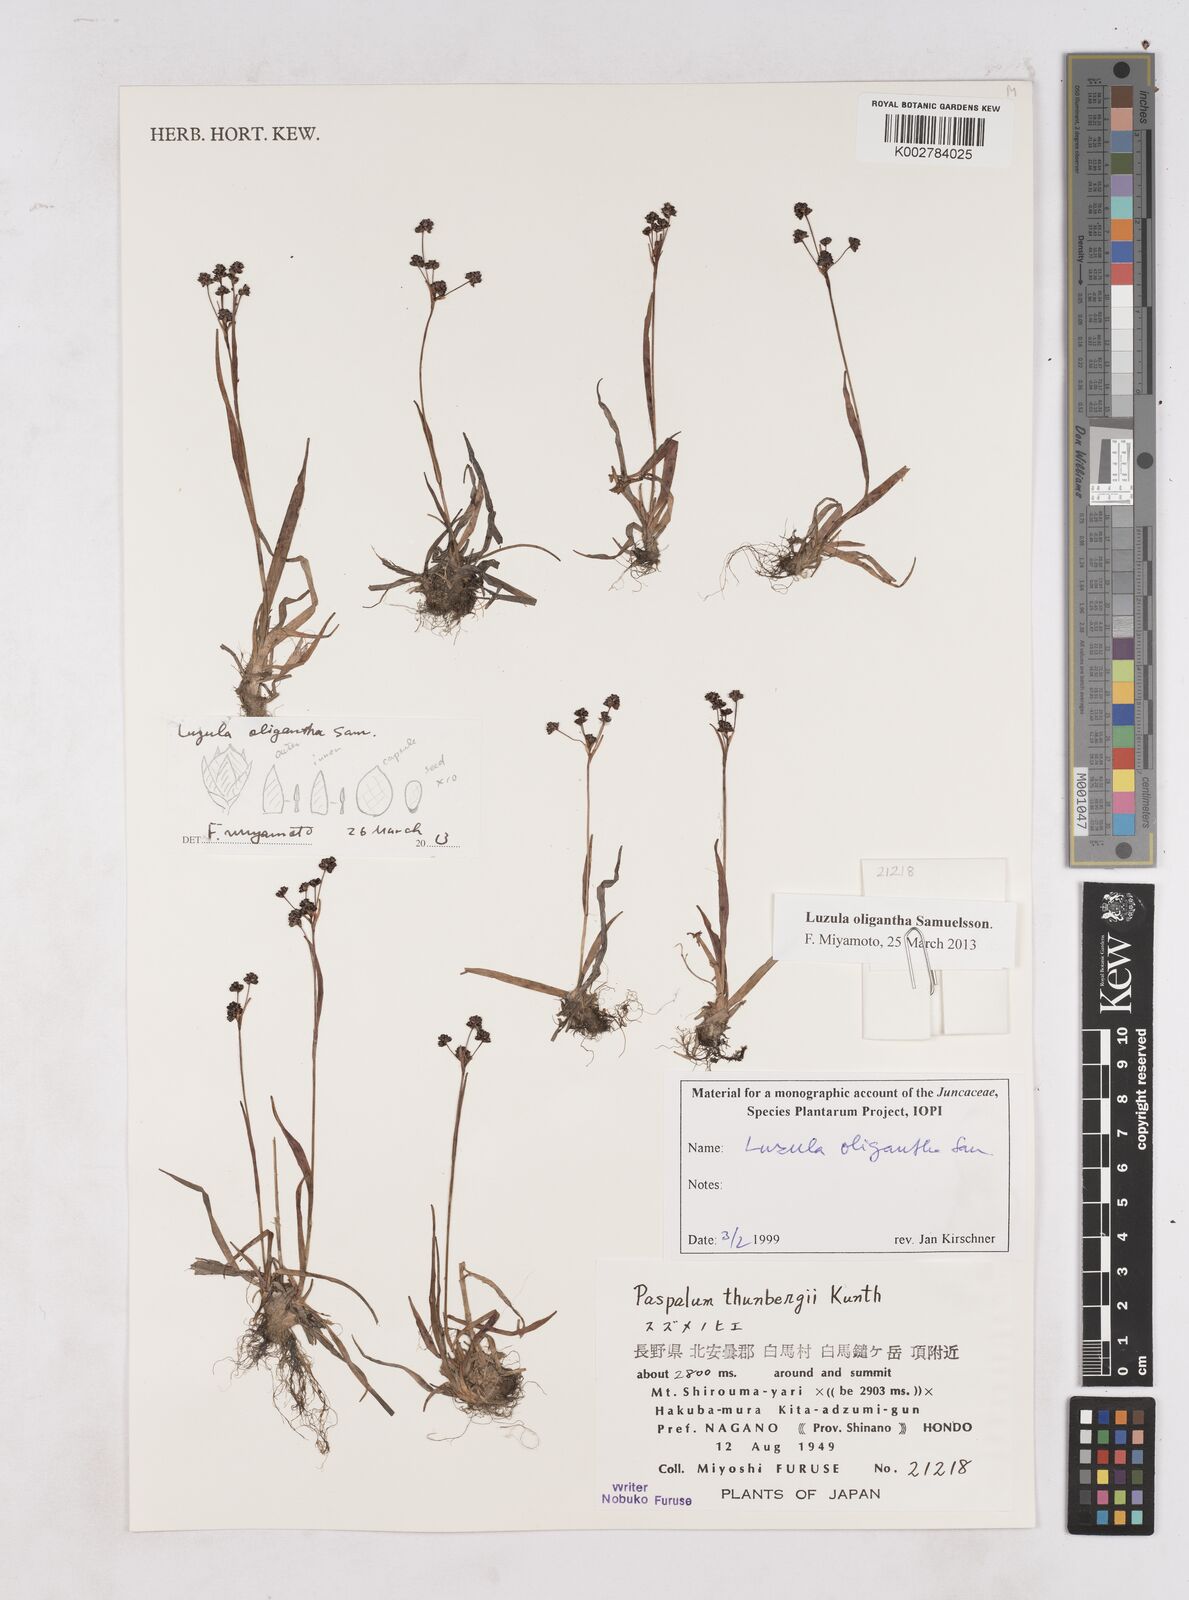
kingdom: Plantae
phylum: Tracheophyta
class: Liliopsida
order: Poales
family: Juncaceae
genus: Luzula
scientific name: Luzula oligantha
